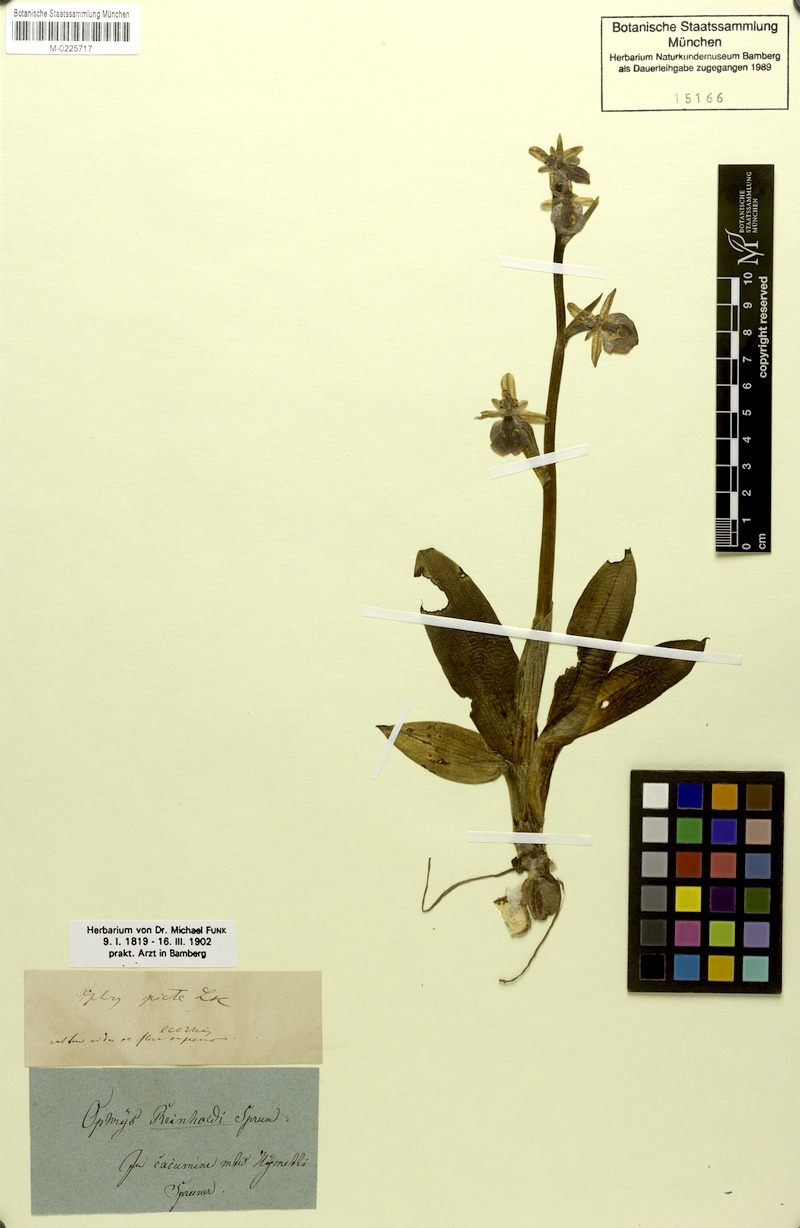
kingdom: Plantae
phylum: Tracheophyta
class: Liliopsida
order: Asparagales
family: Orchidaceae
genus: Ophrys
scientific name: Ophrys reinholdii
